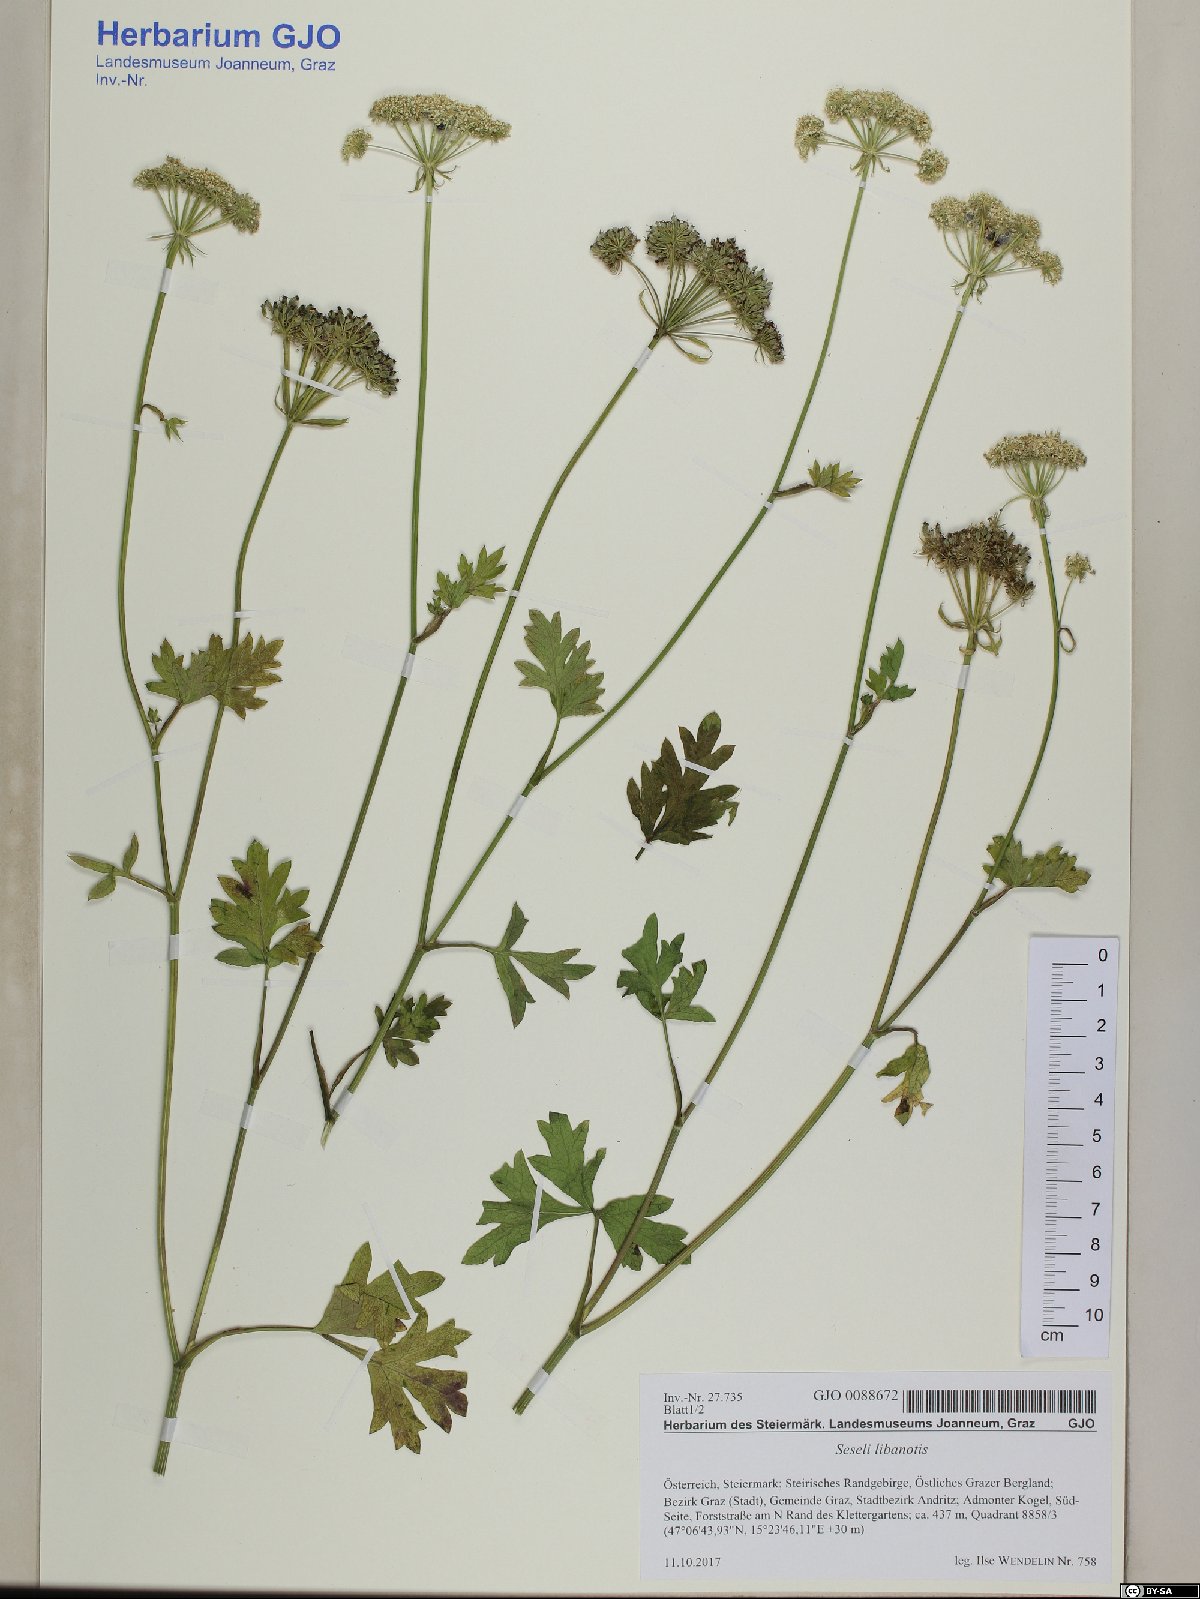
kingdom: Plantae
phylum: Tracheophyta
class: Magnoliopsida
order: Apiales
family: Apiaceae
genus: Seseli
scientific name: Seseli libanotis
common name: Mooncarrot
